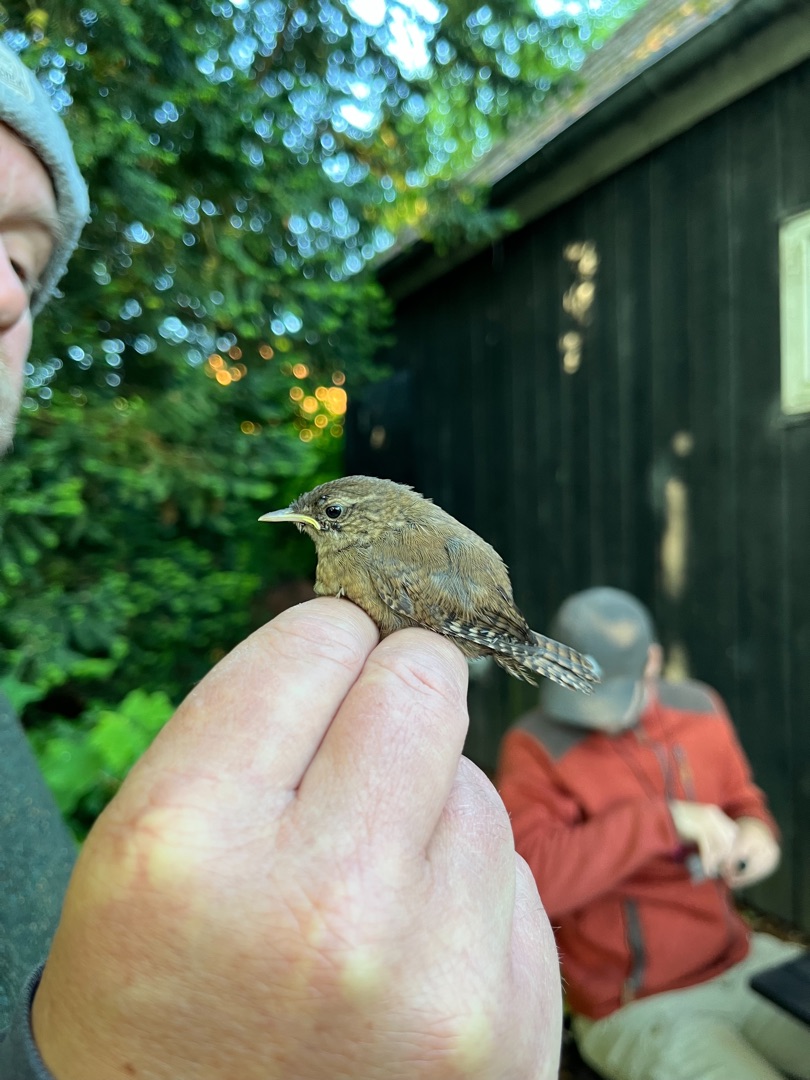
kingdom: Animalia
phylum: Chordata
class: Aves
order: Passeriformes
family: Troglodytidae
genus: Troglodytes
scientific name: Troglodytes troglodytes
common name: Gærdesmutte
